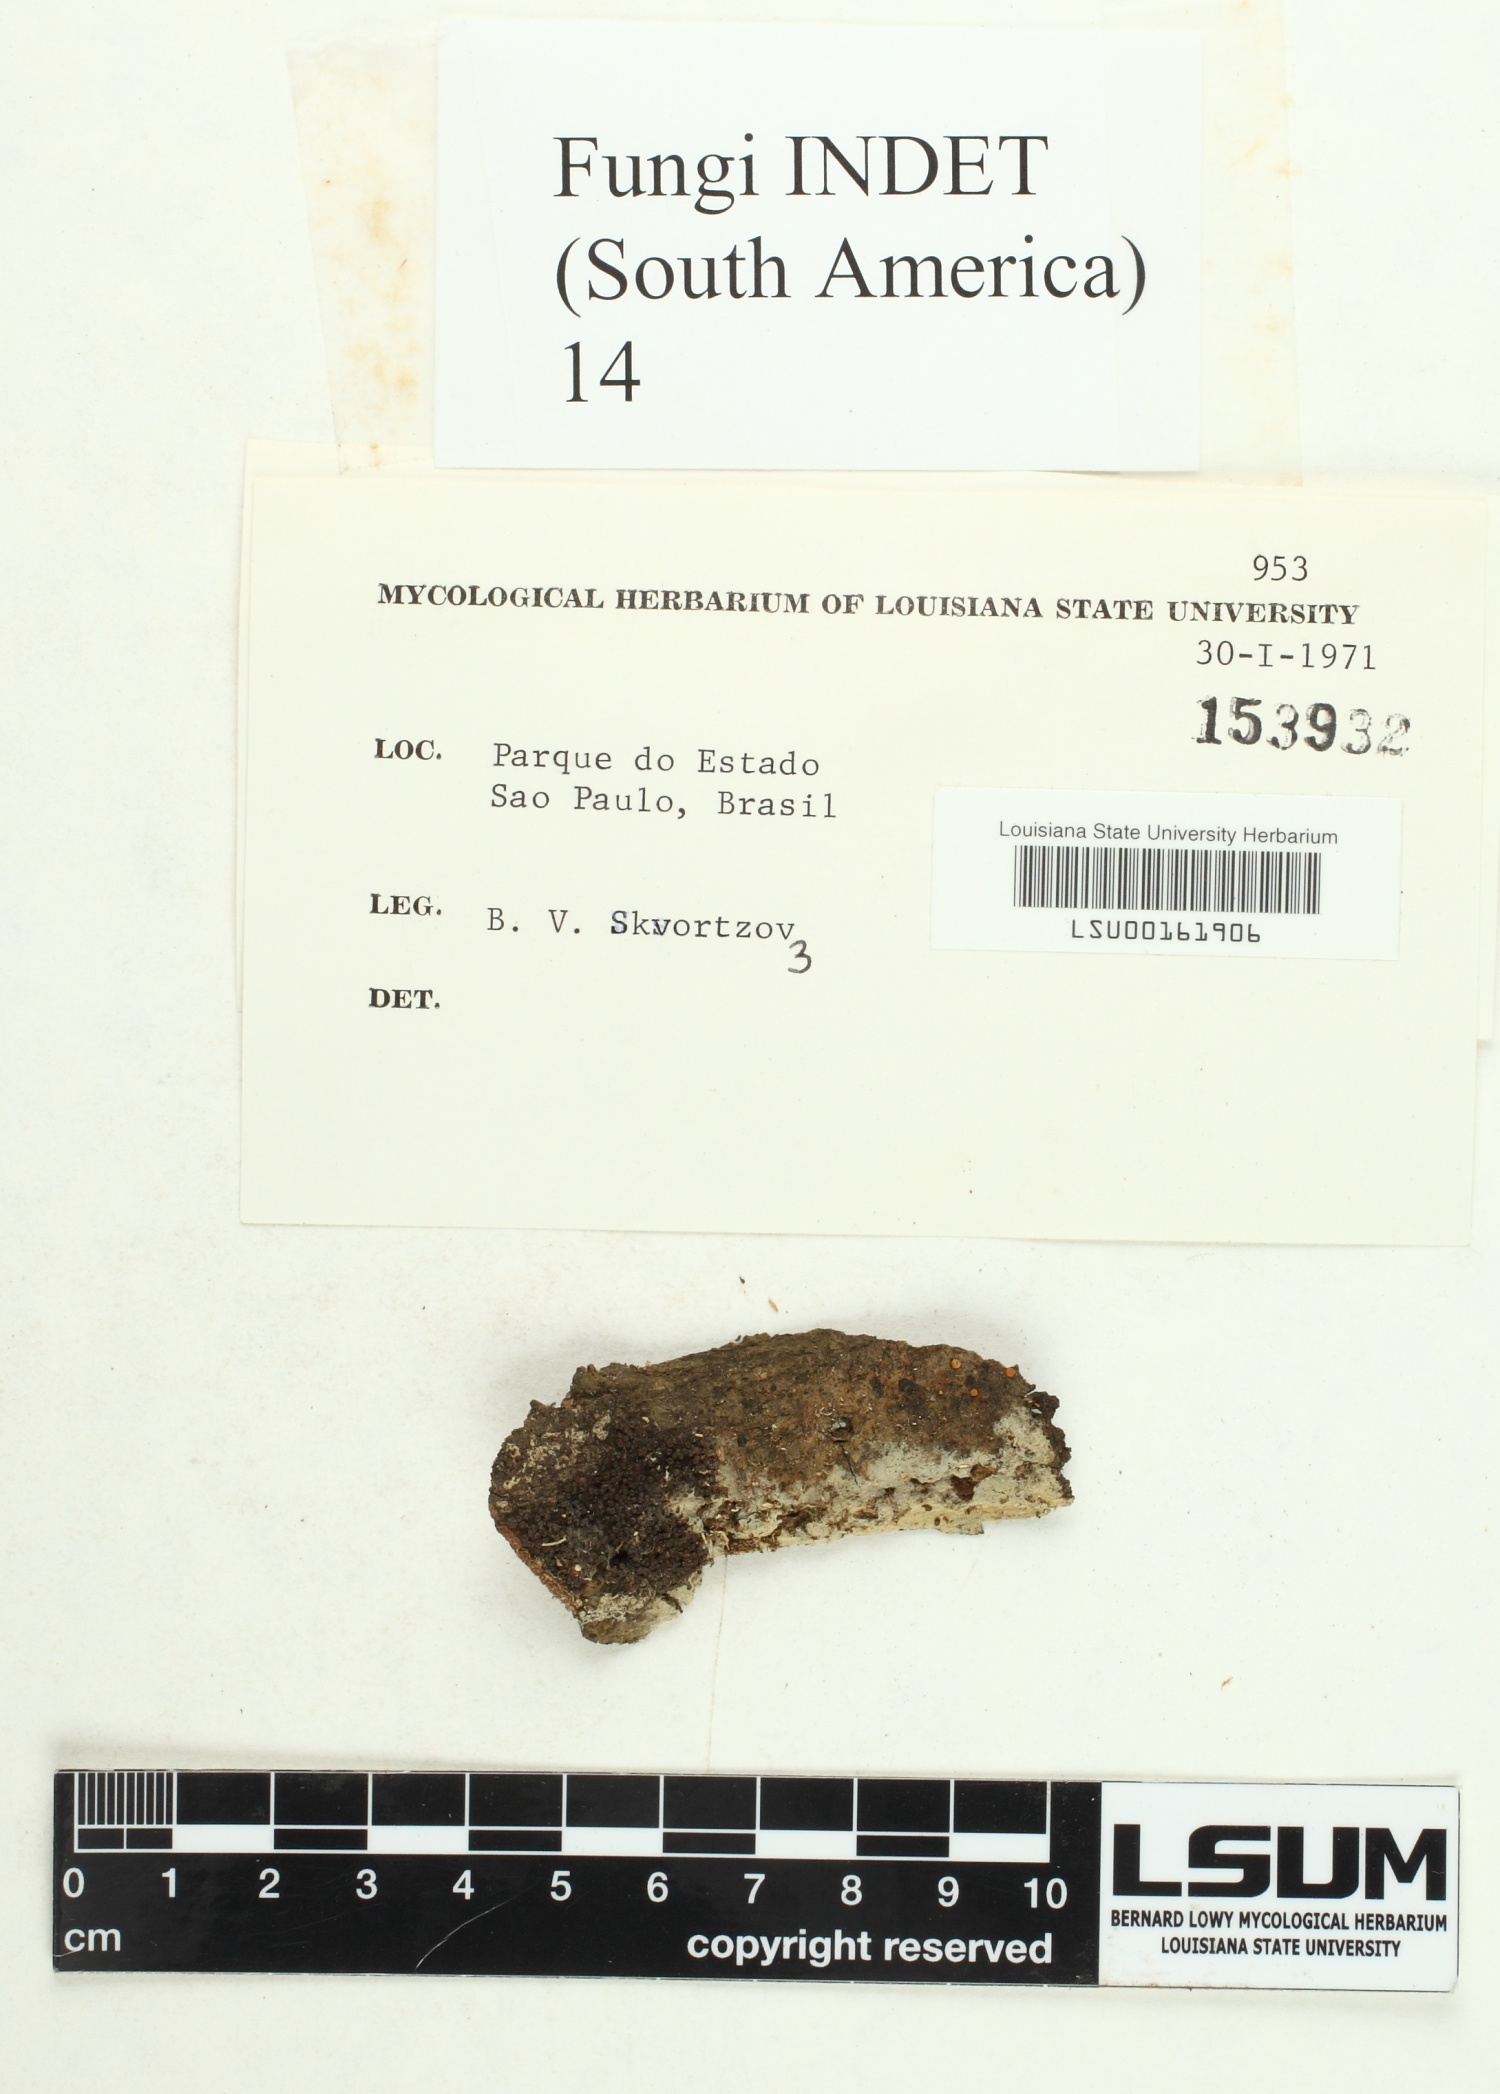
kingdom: Fungi
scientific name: Fungi
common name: Fungi
